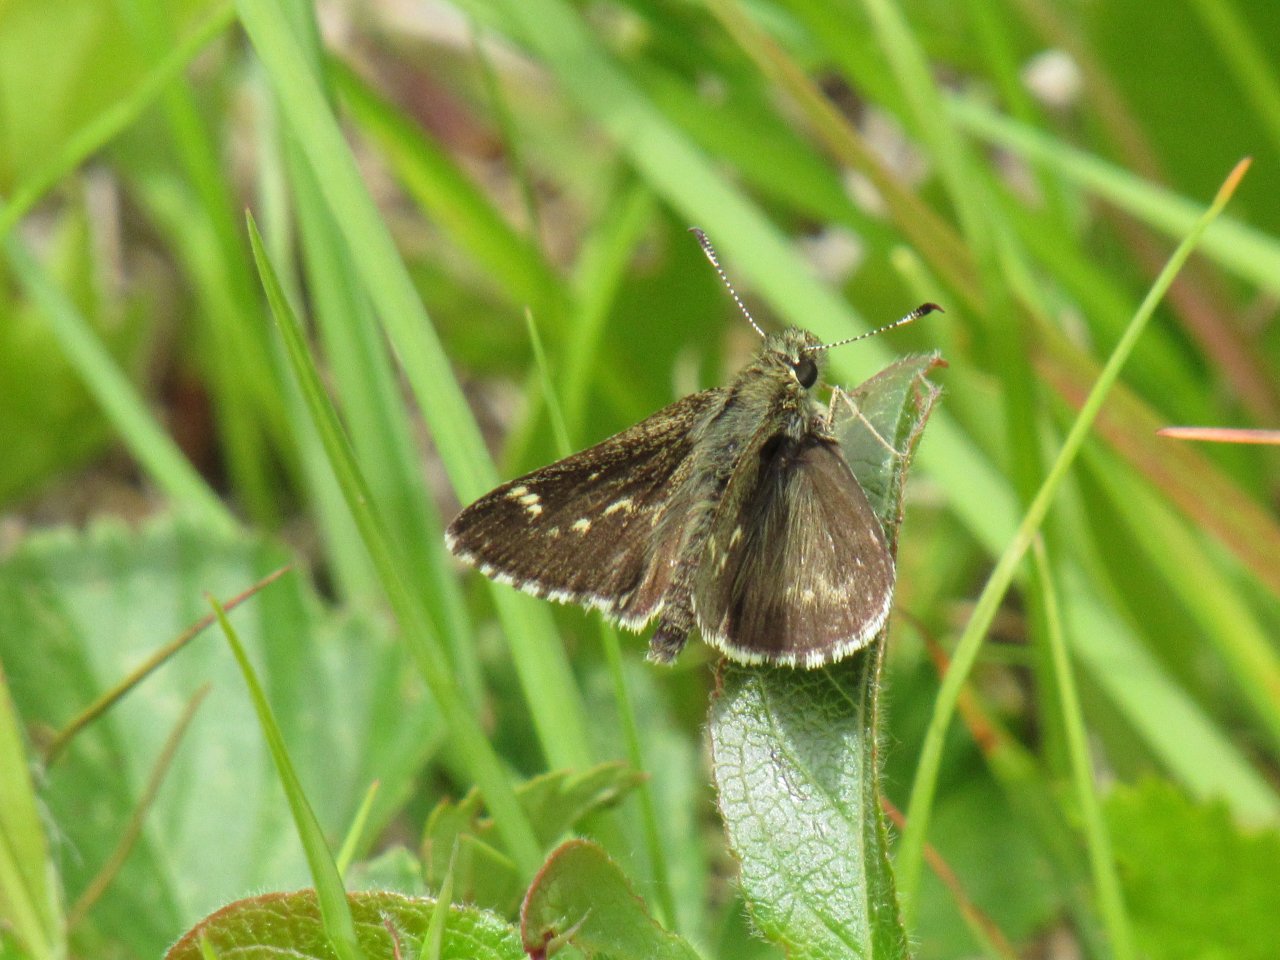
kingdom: Animalia
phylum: Arthropoda
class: Insecta
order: Lepidoptera
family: Hesperiidae
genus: Mastor
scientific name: Mastor hegon
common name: Pepper and Salt Skipper
